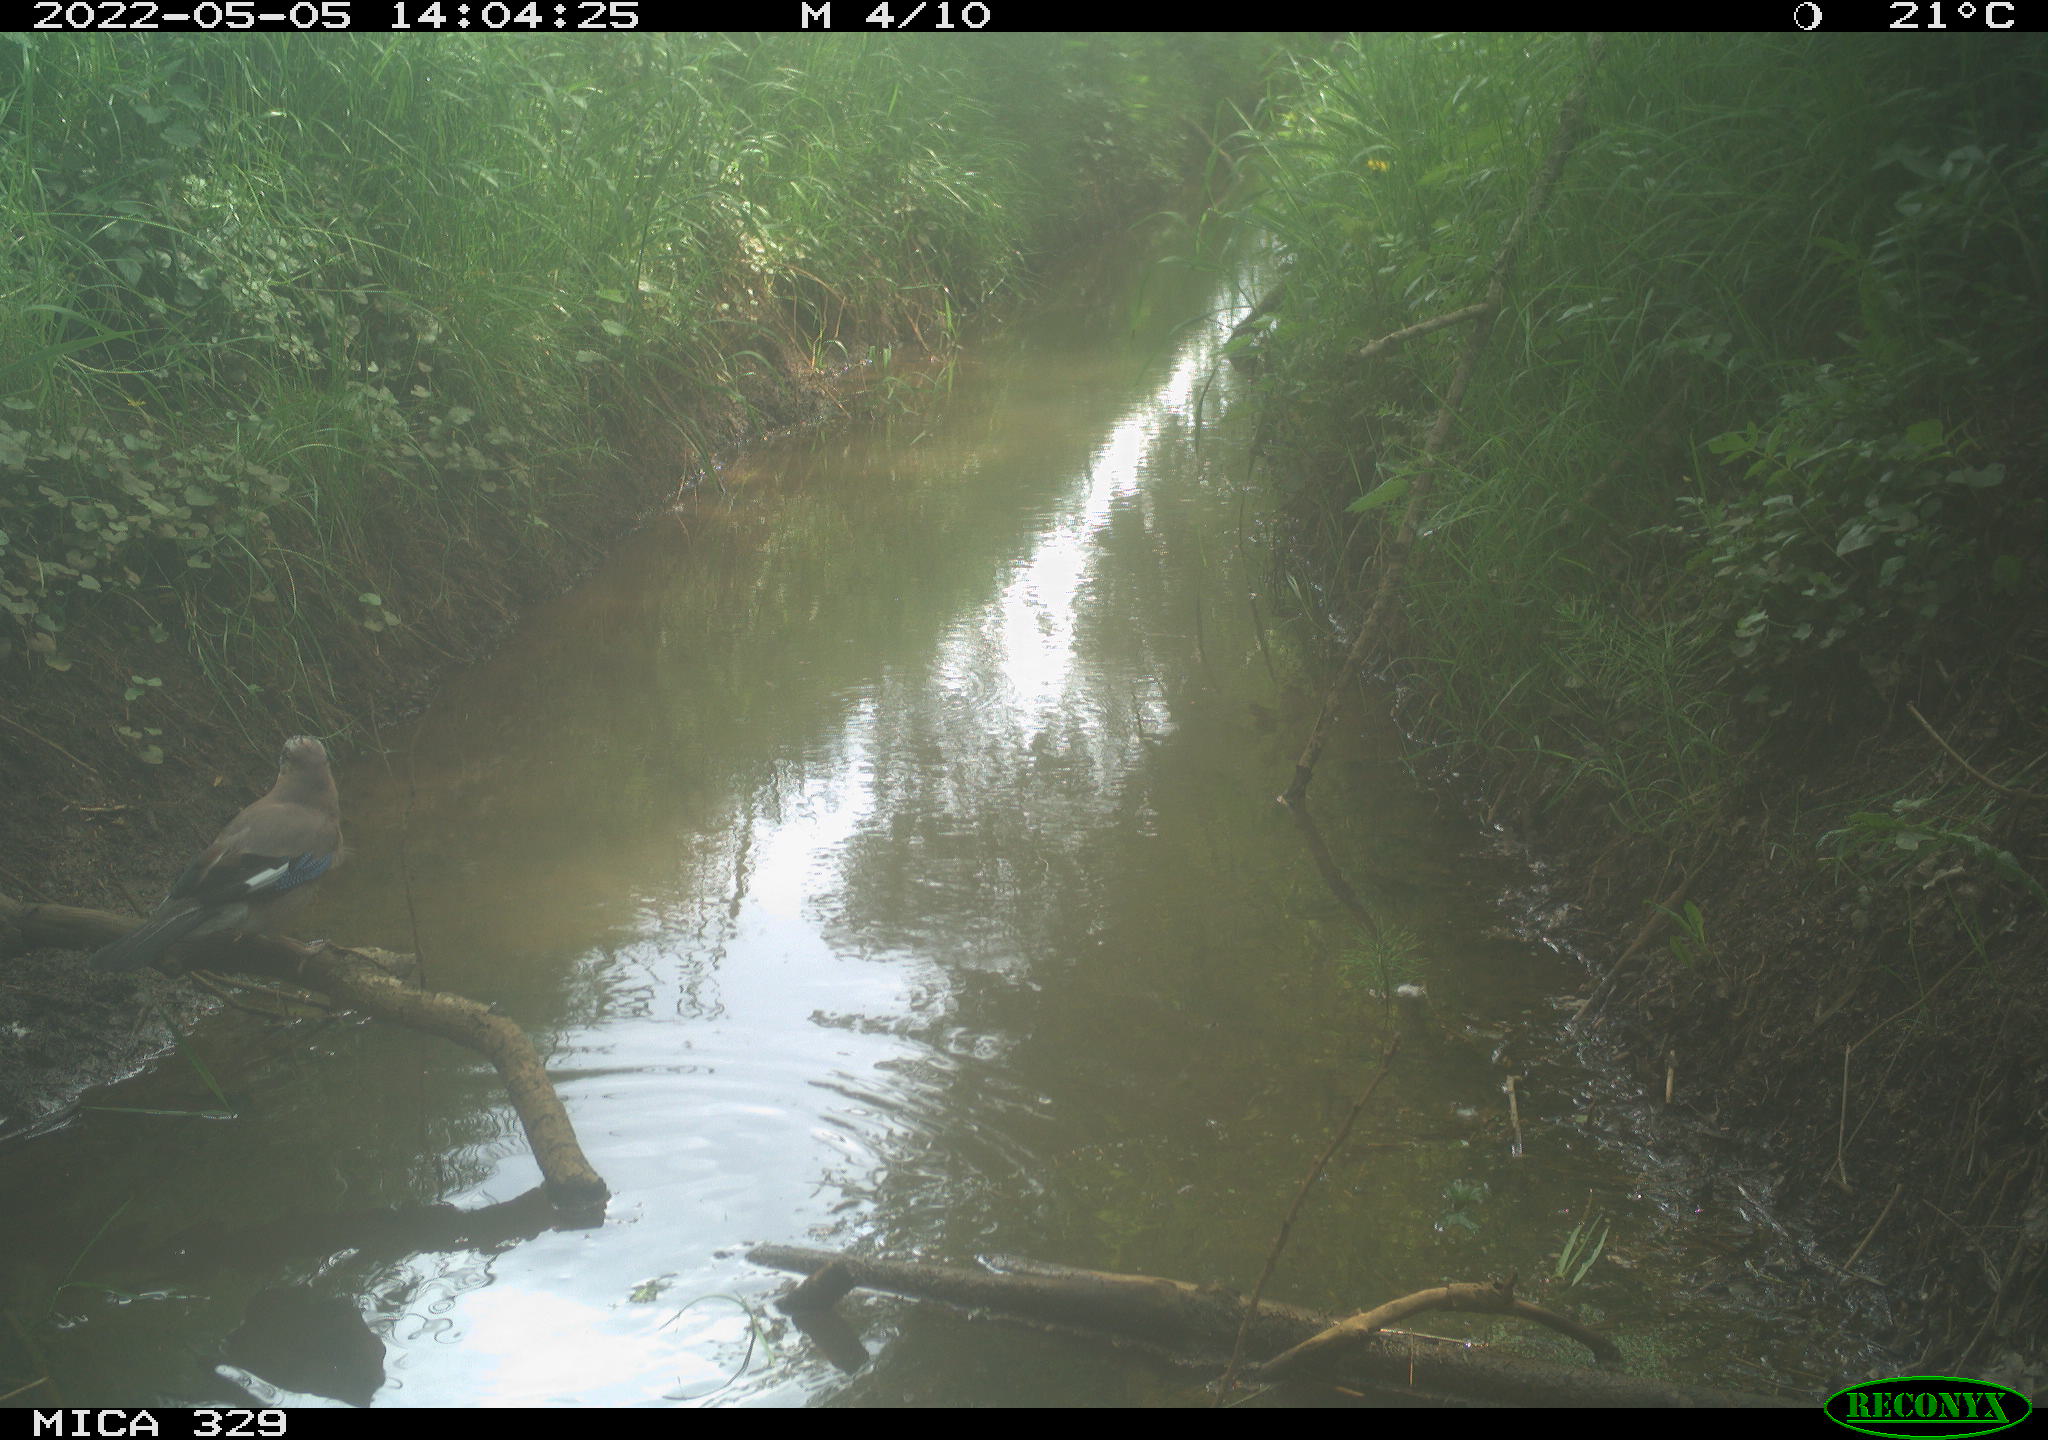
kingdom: Animalia
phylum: Chordata
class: Aves
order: Passeriformes
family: Corvidae
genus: Garrulus
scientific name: Garrulus glandarius
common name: Eurasian jay
